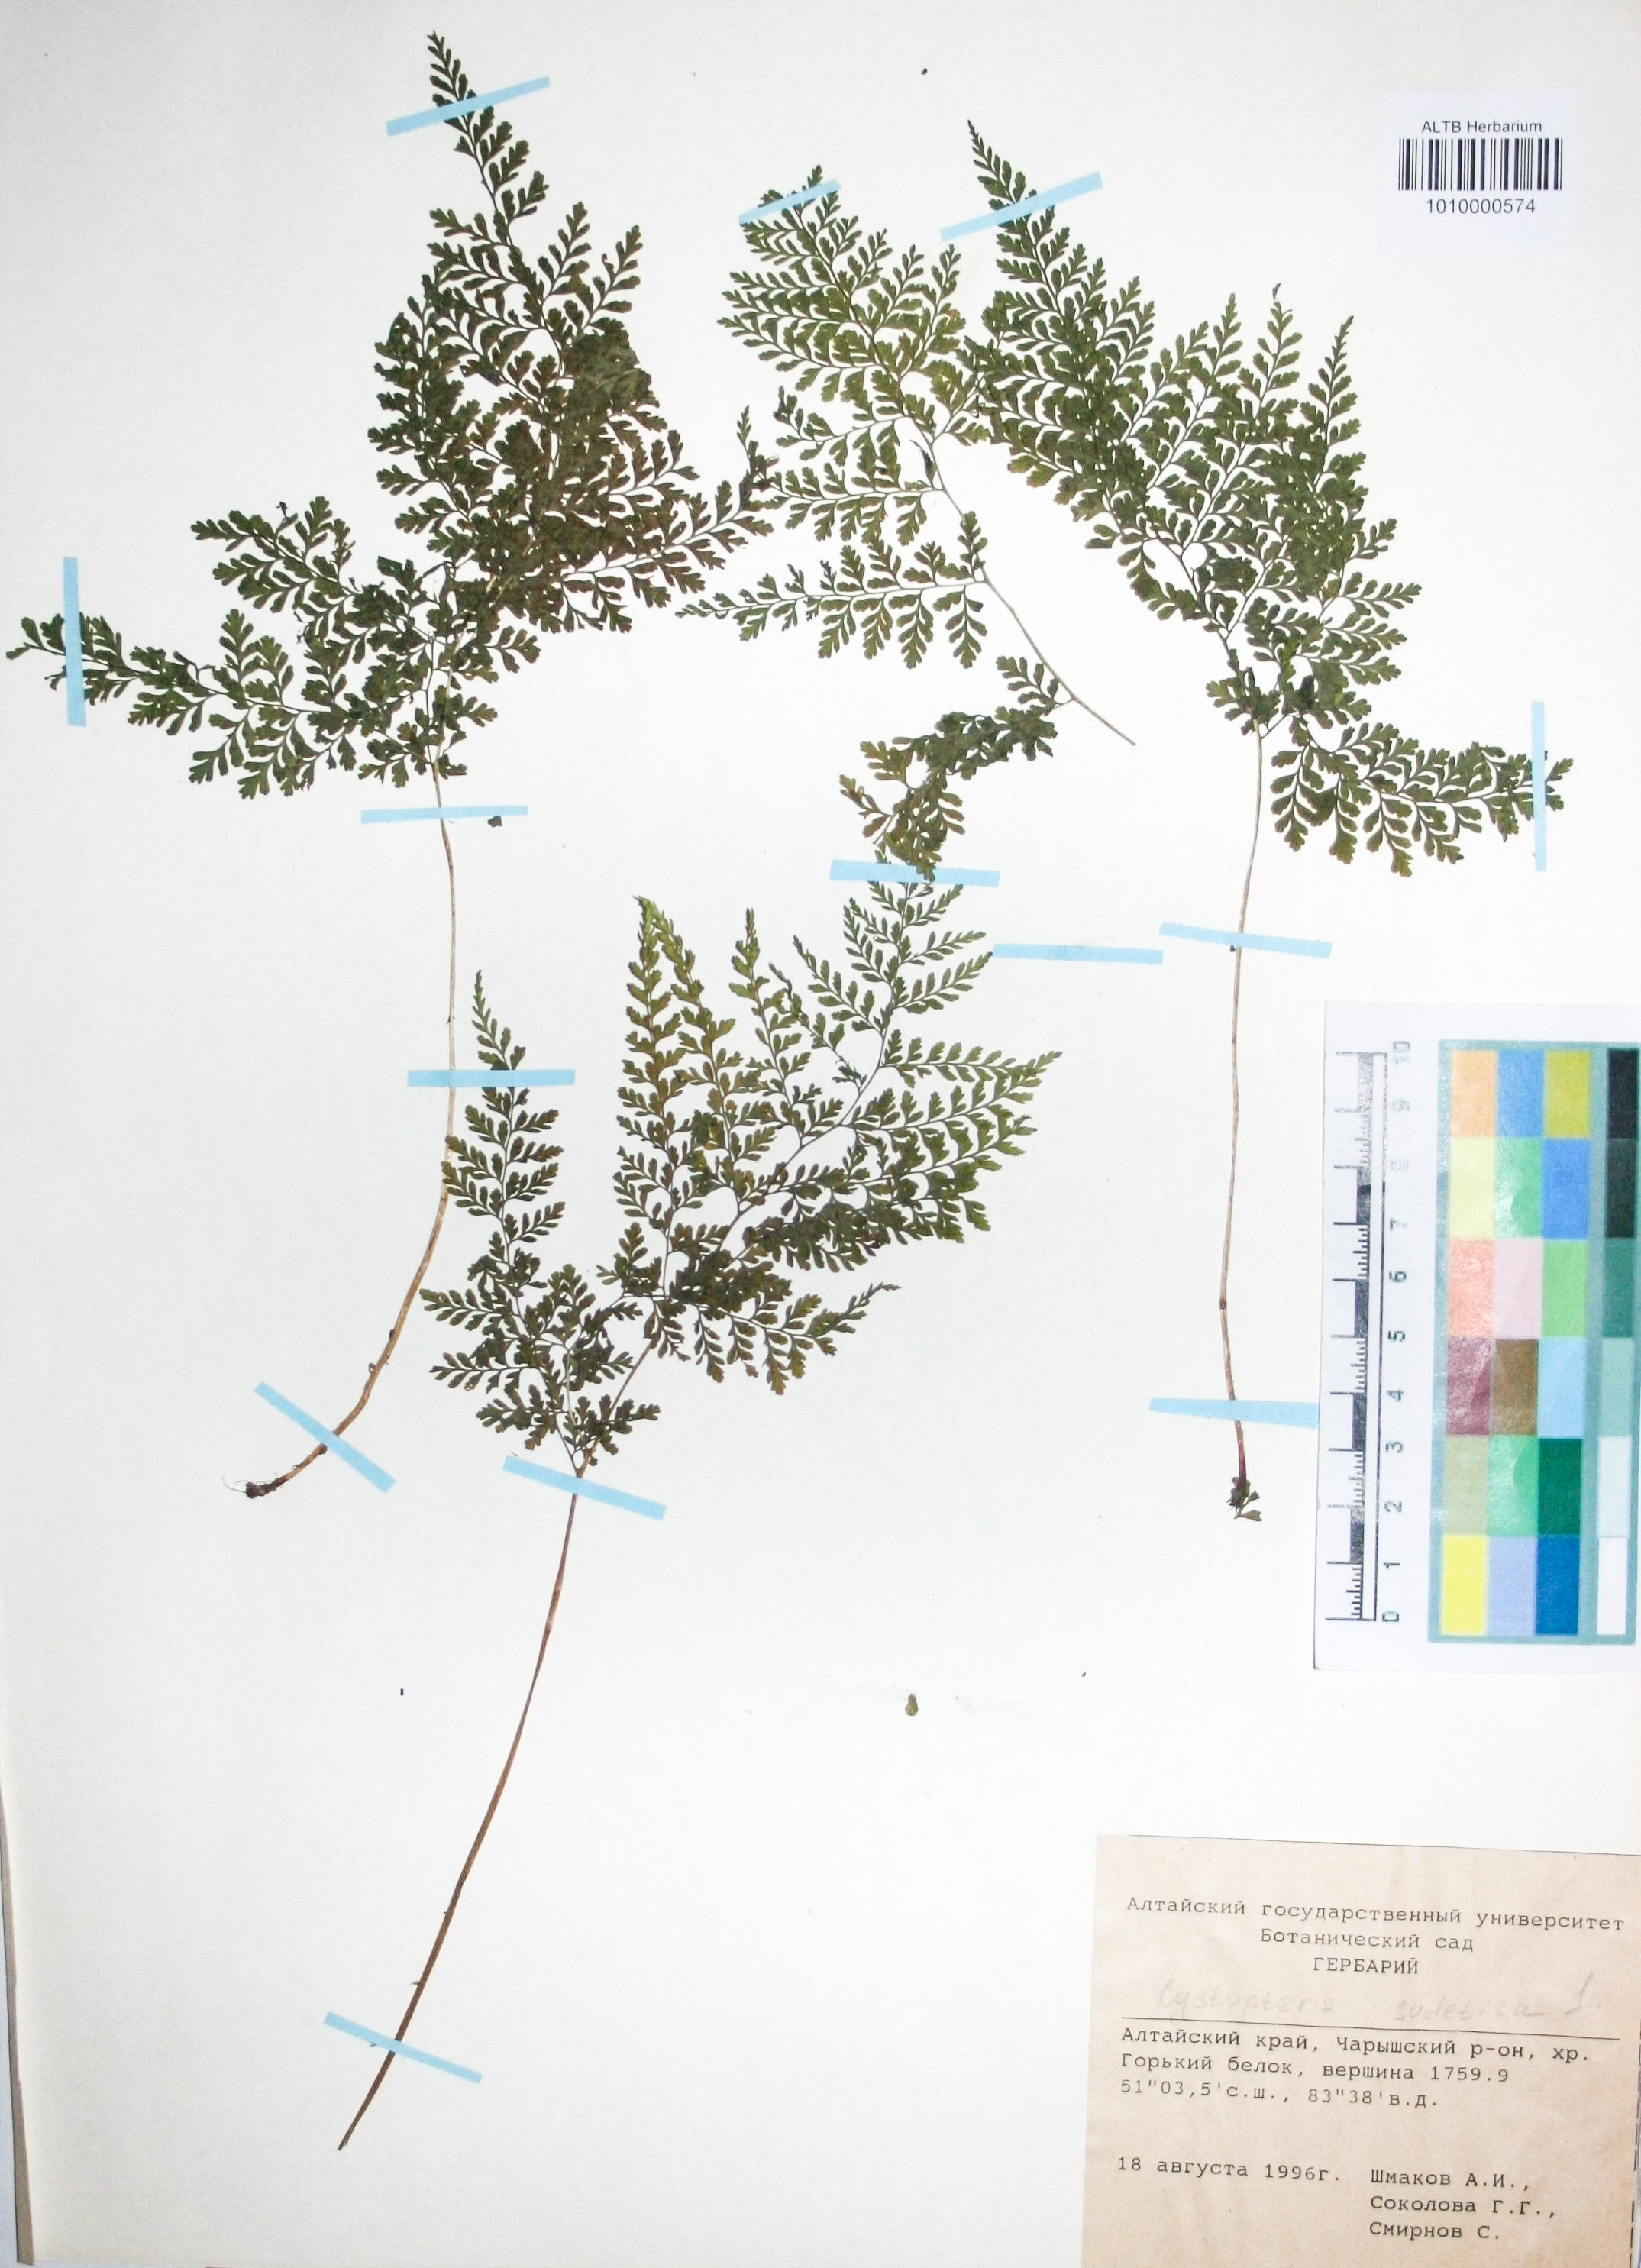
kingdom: Plantae
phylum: Tracheophyta
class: Polypodiopsida
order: Polypodiales
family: Cystopteridaceae
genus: Cystopteris
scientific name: Cystopteris sudetica
